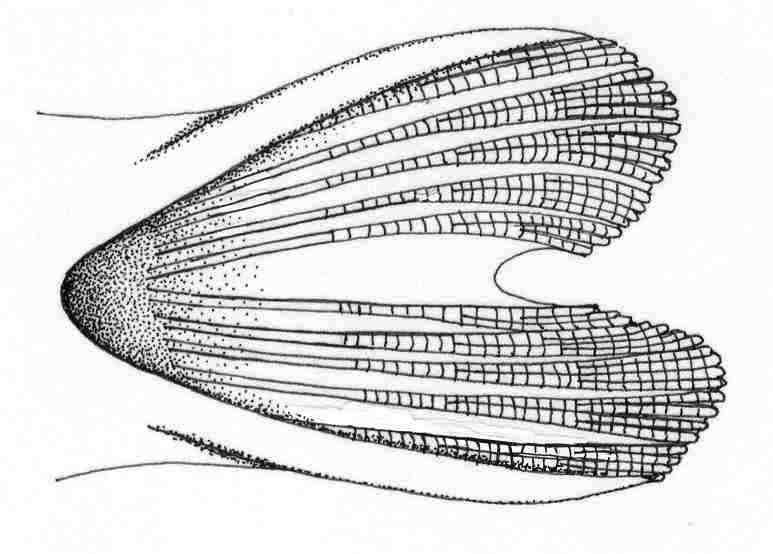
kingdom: Animalia
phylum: Chordata
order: Perciformes
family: Gobiidae
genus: Paratrypauchen
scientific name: Paratrypauchen microcephalus
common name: Comb goby
